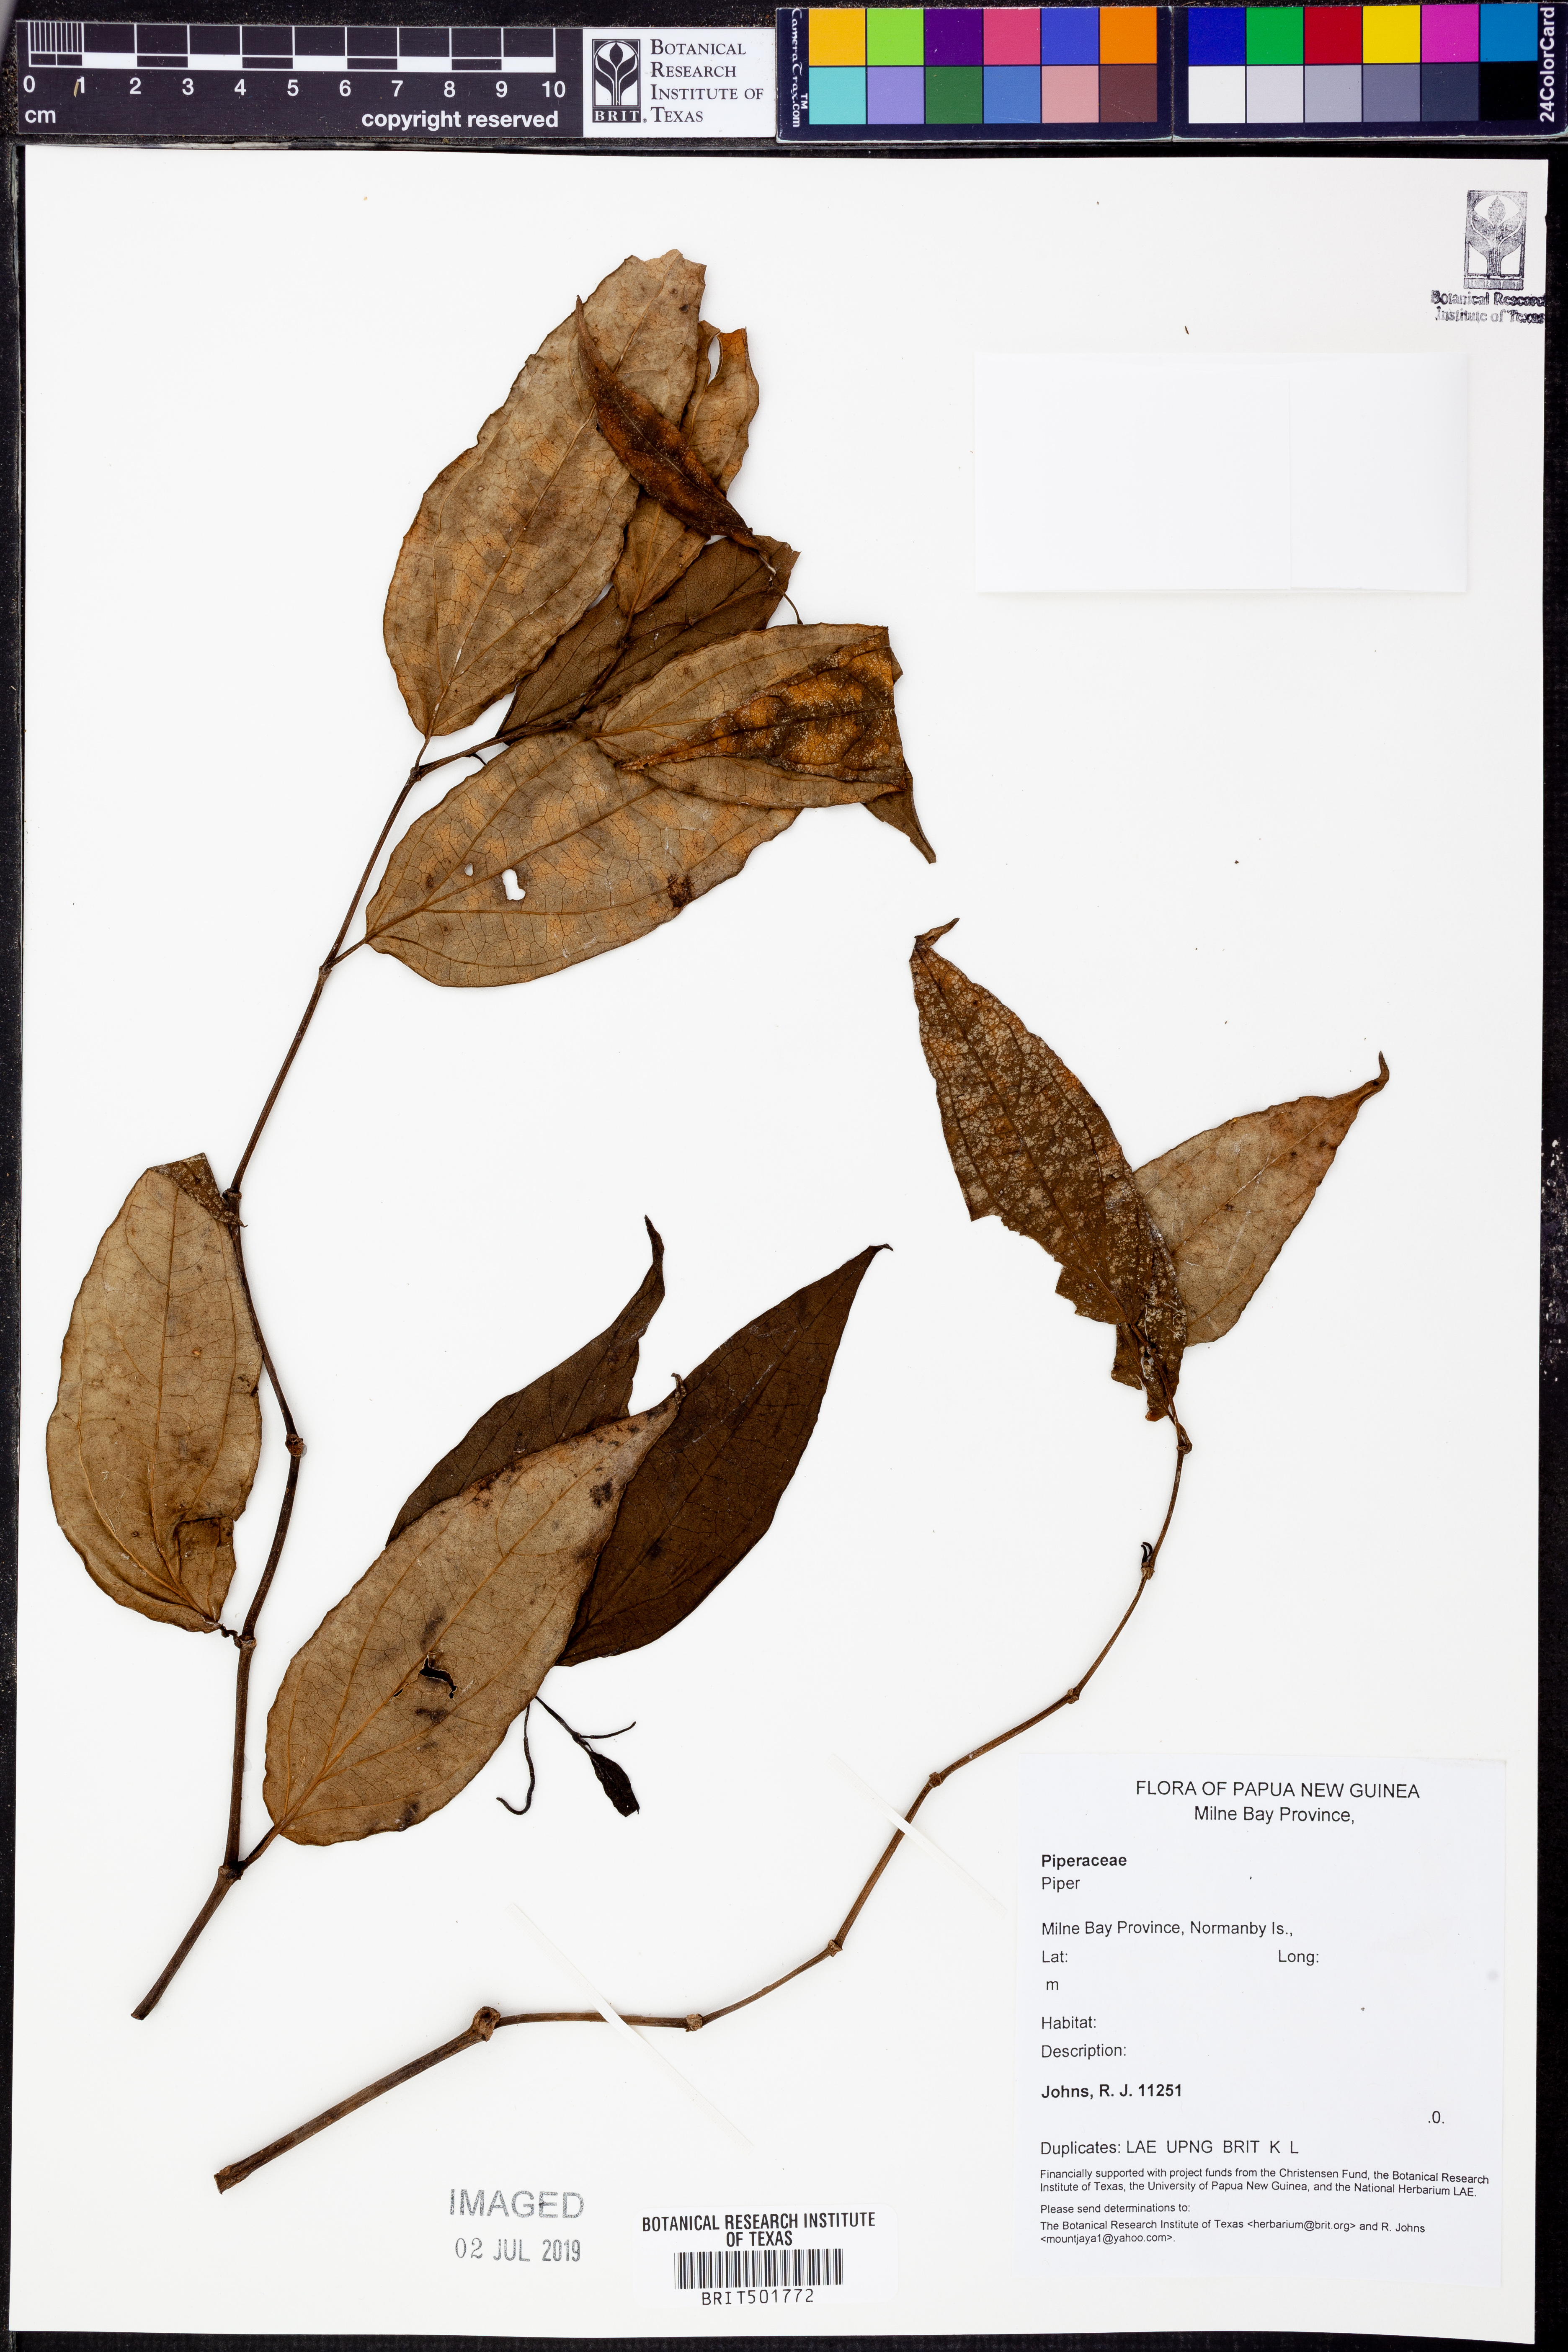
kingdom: Plantae
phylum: Tracheophyta
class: Magnoliopsida
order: Piperales
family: Piperaceae
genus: Piper
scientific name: Piper
